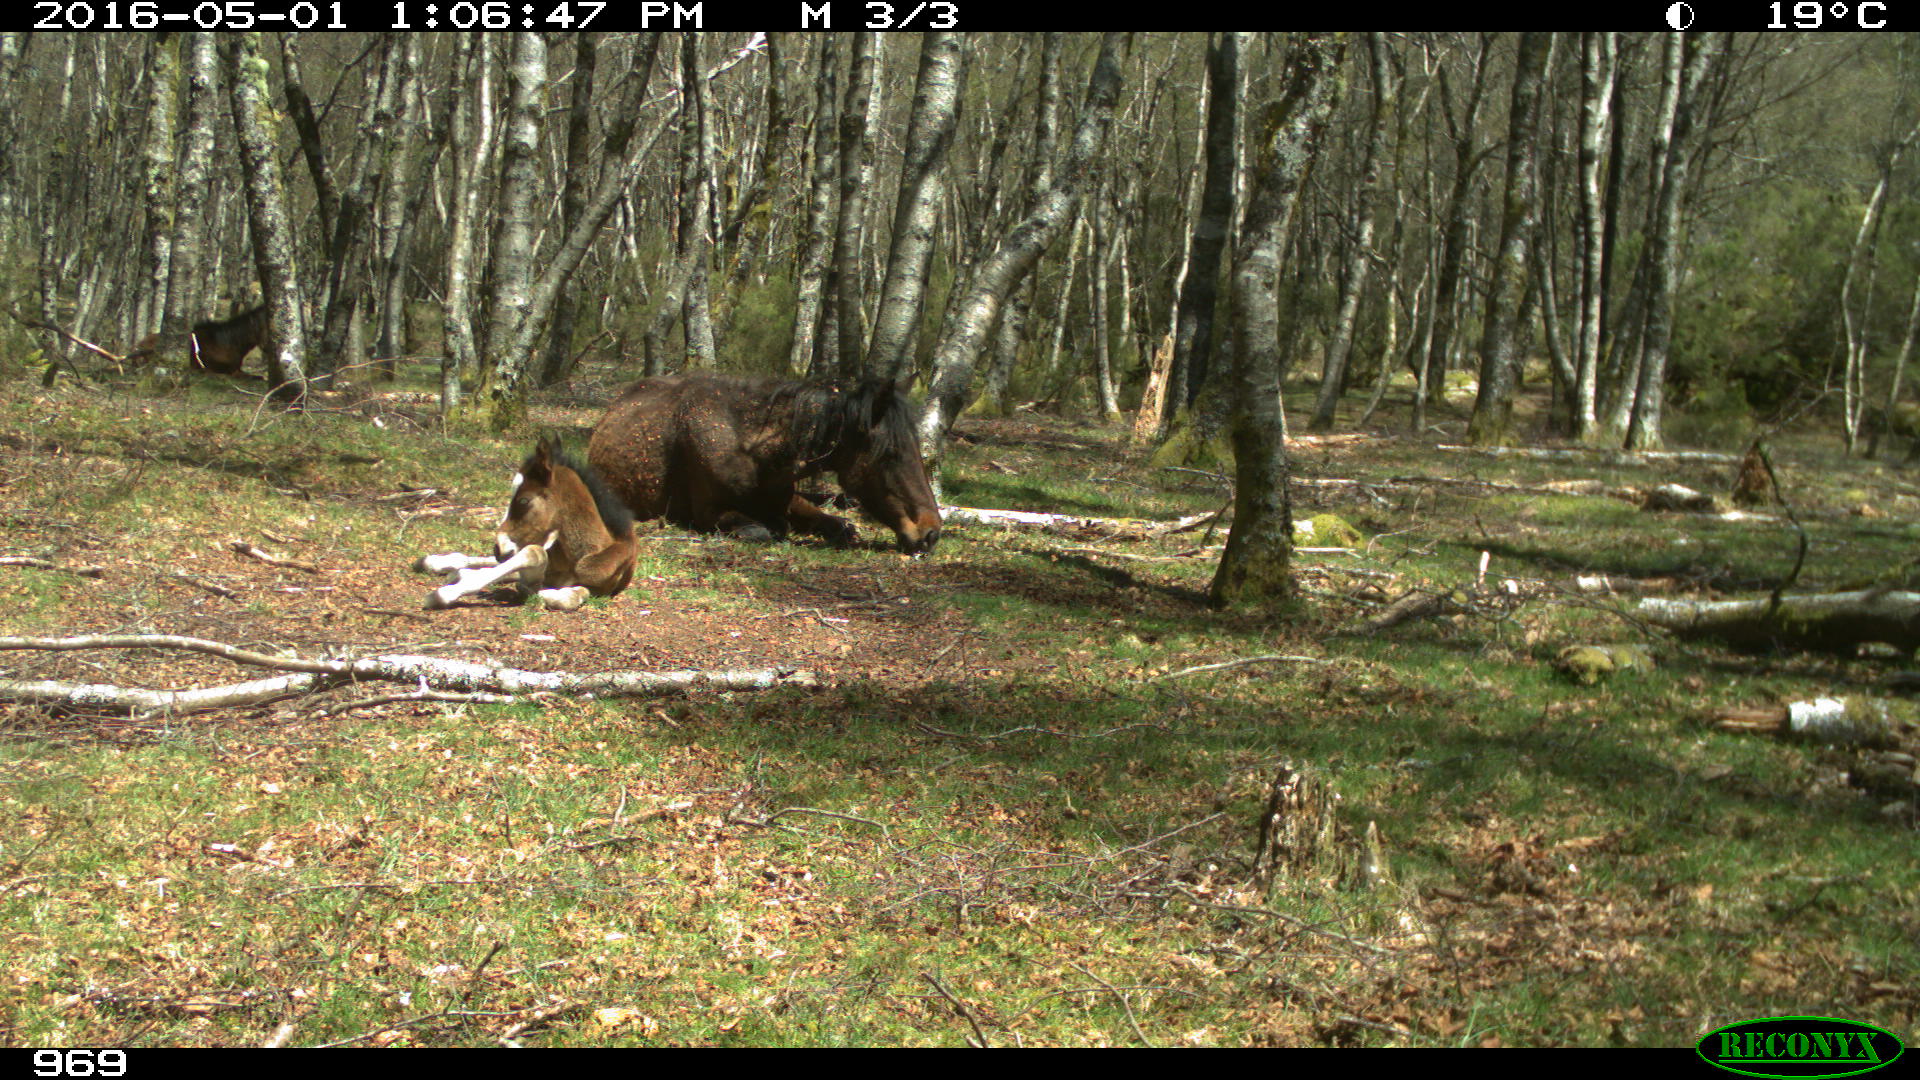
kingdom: Animalia
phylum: Chordata
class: Mammalia
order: Perissodactyla
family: Equidae
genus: Equus
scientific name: Equus caballus
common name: Horse
